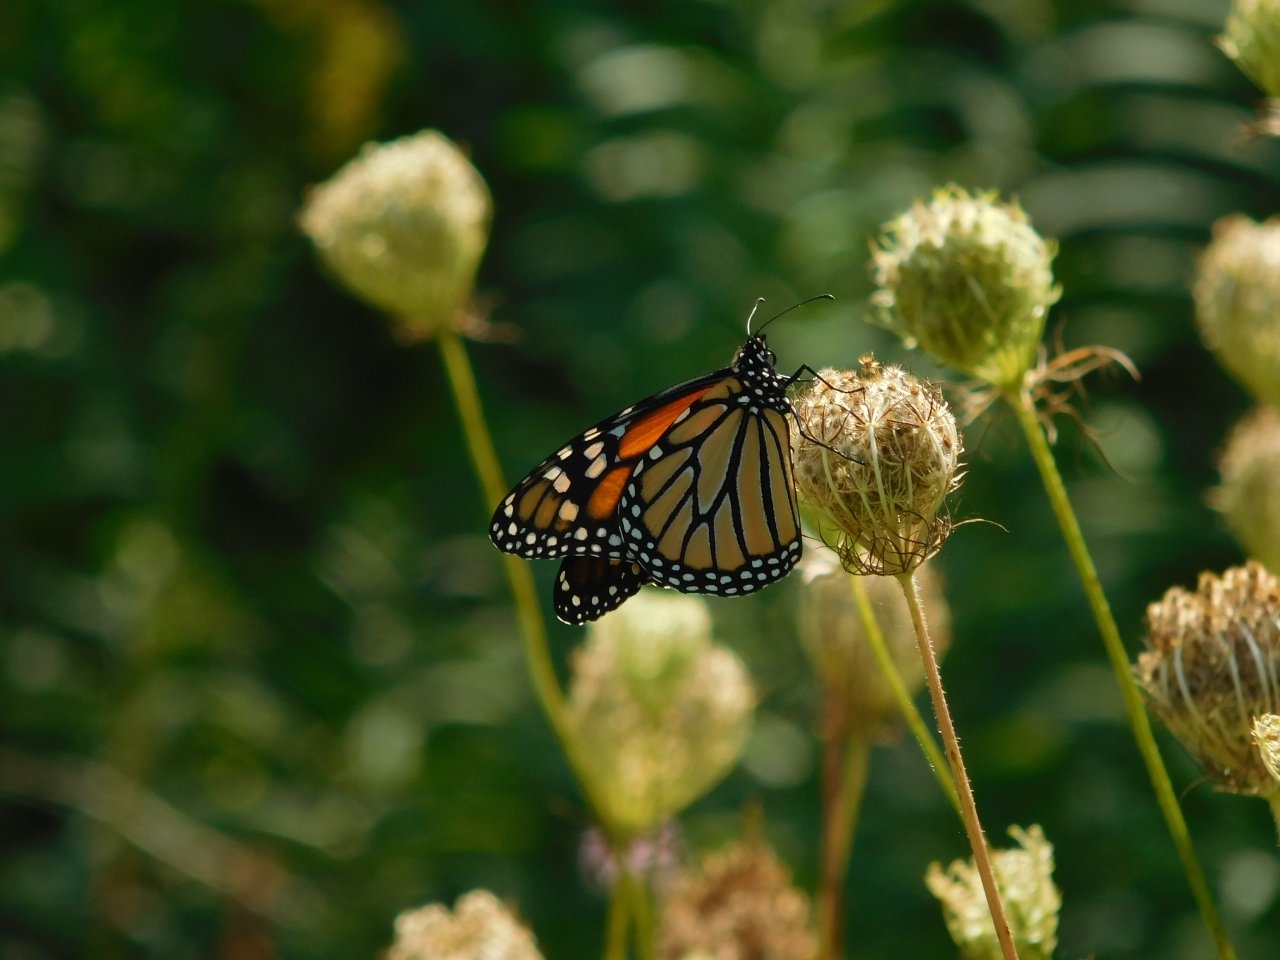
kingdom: Animalia
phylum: Arthropoda
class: Insecta
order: Lepidoptera
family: Nymphalidae
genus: Danaus
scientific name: Danaus plexippus
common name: Monarch
